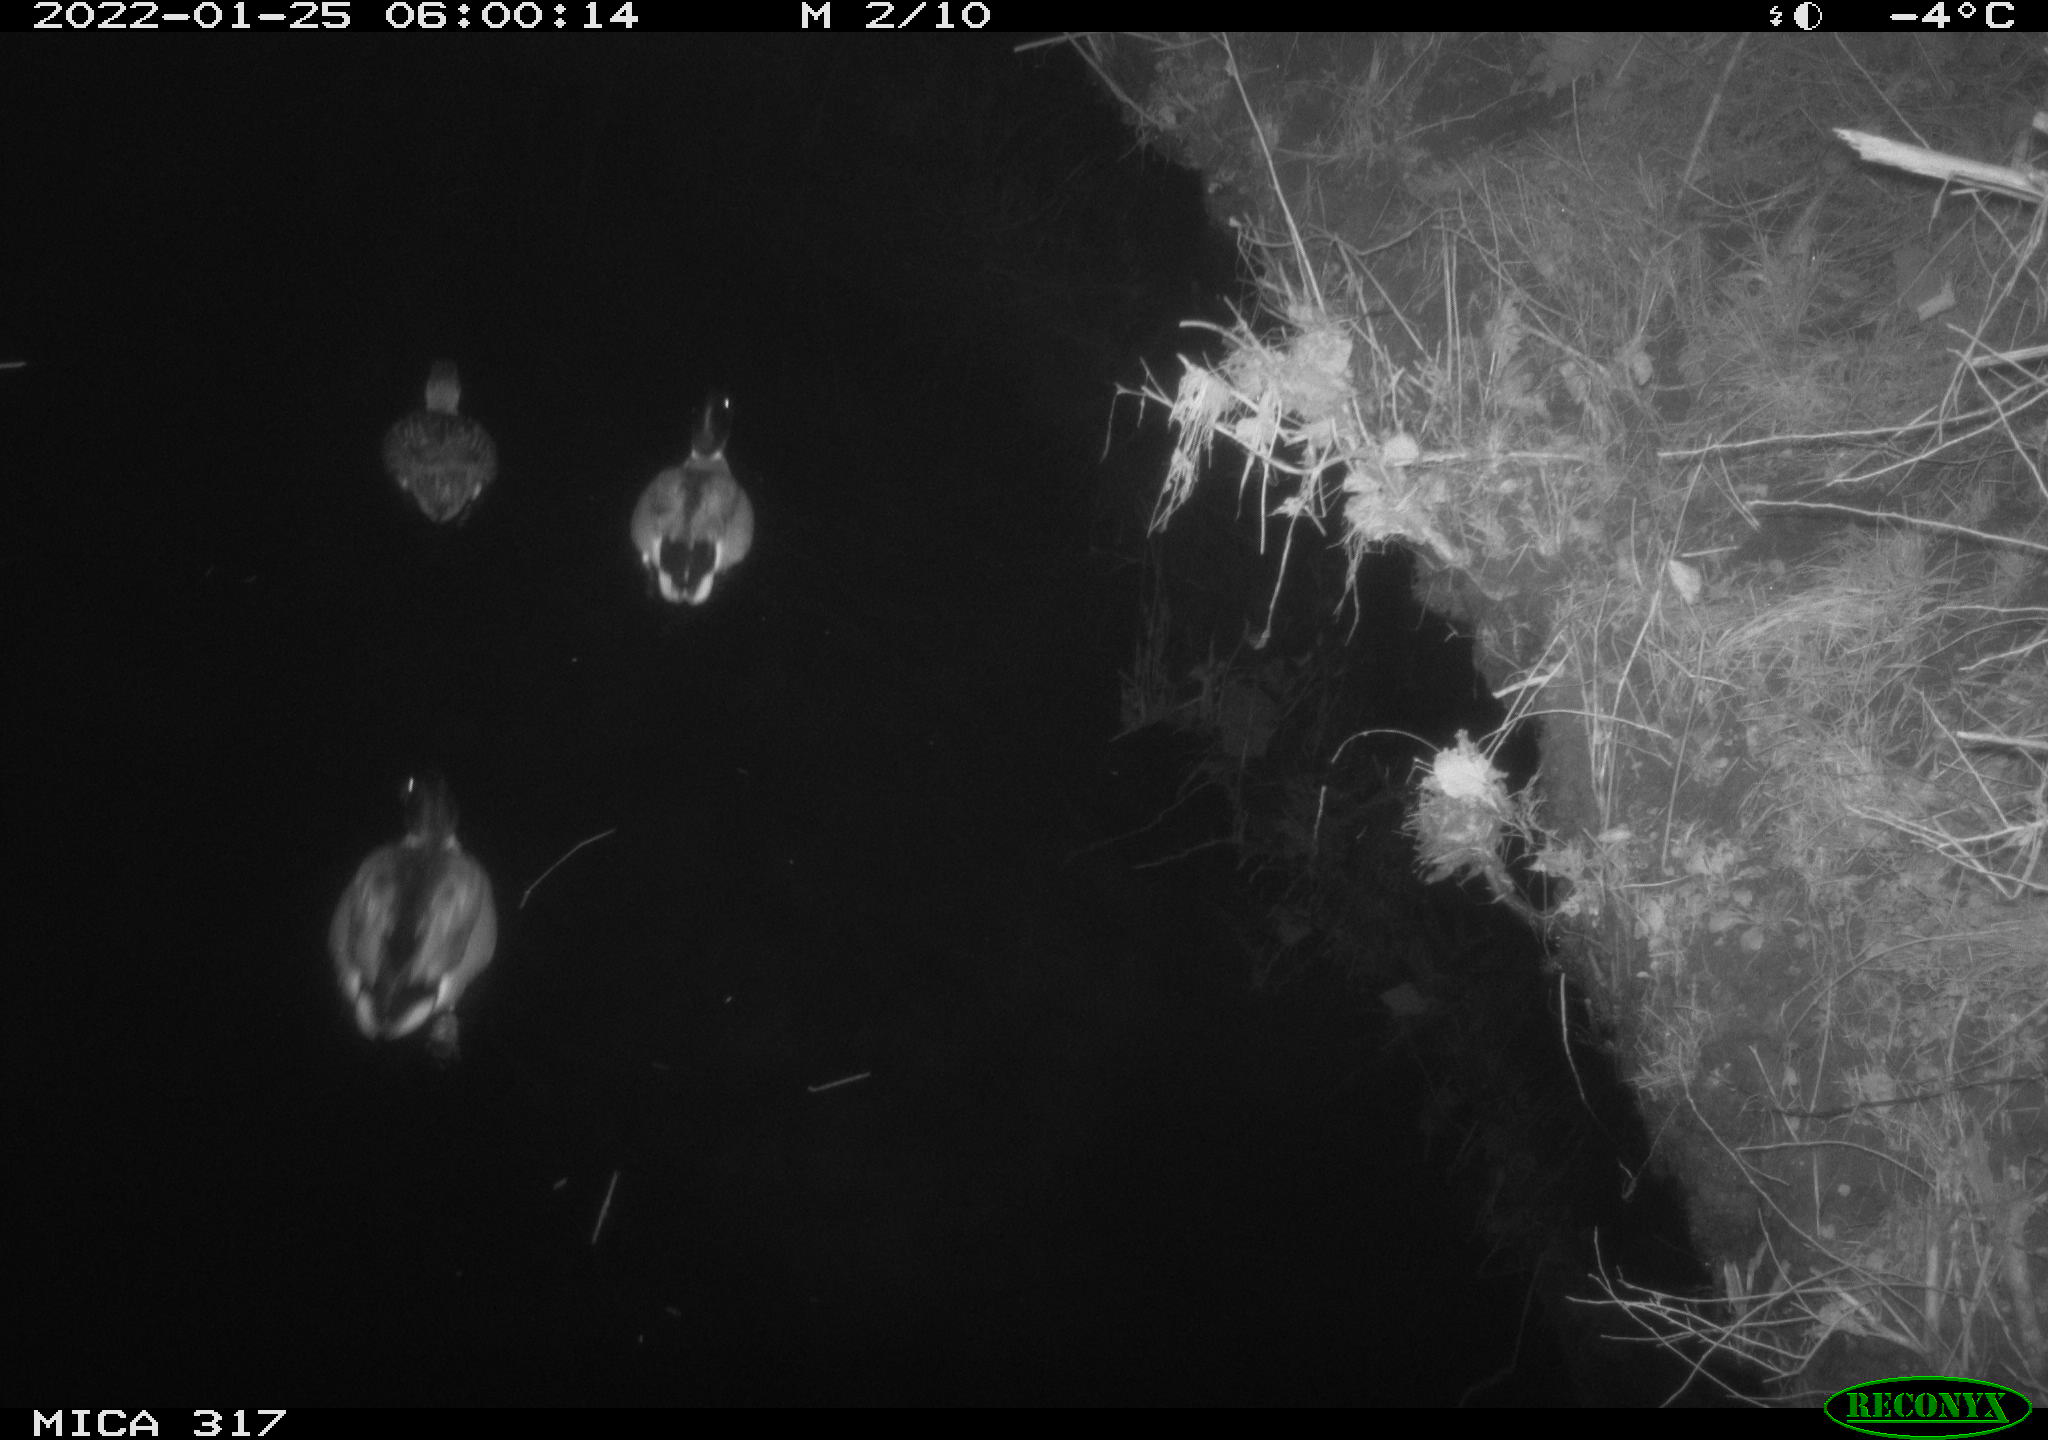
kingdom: Animalia
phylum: Chordata
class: Aves
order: Anseriformes
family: Anatidae
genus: Anas
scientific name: Anas platyrhynchos
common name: Mallard
